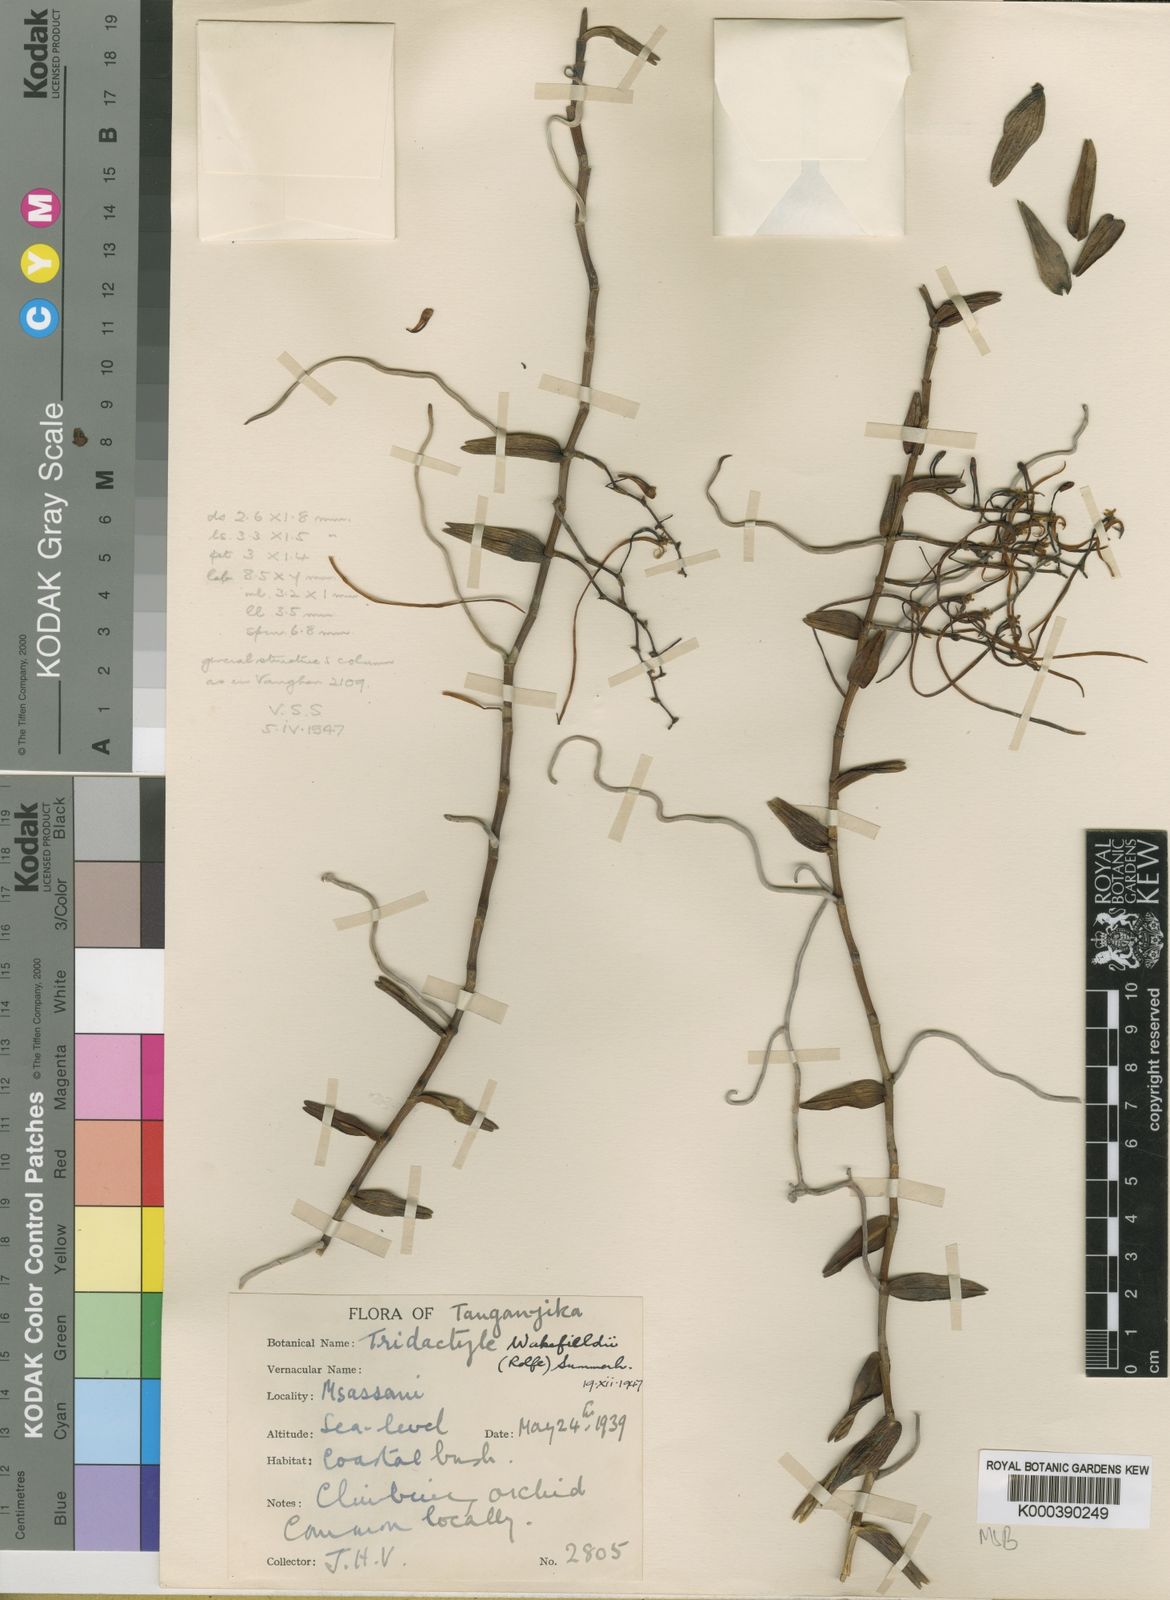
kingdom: Plantae
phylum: Tracheophyta
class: Liliopsida
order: Asparagales
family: Orchidaceae
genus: Solenangis
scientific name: Solenangis wakefieldii
